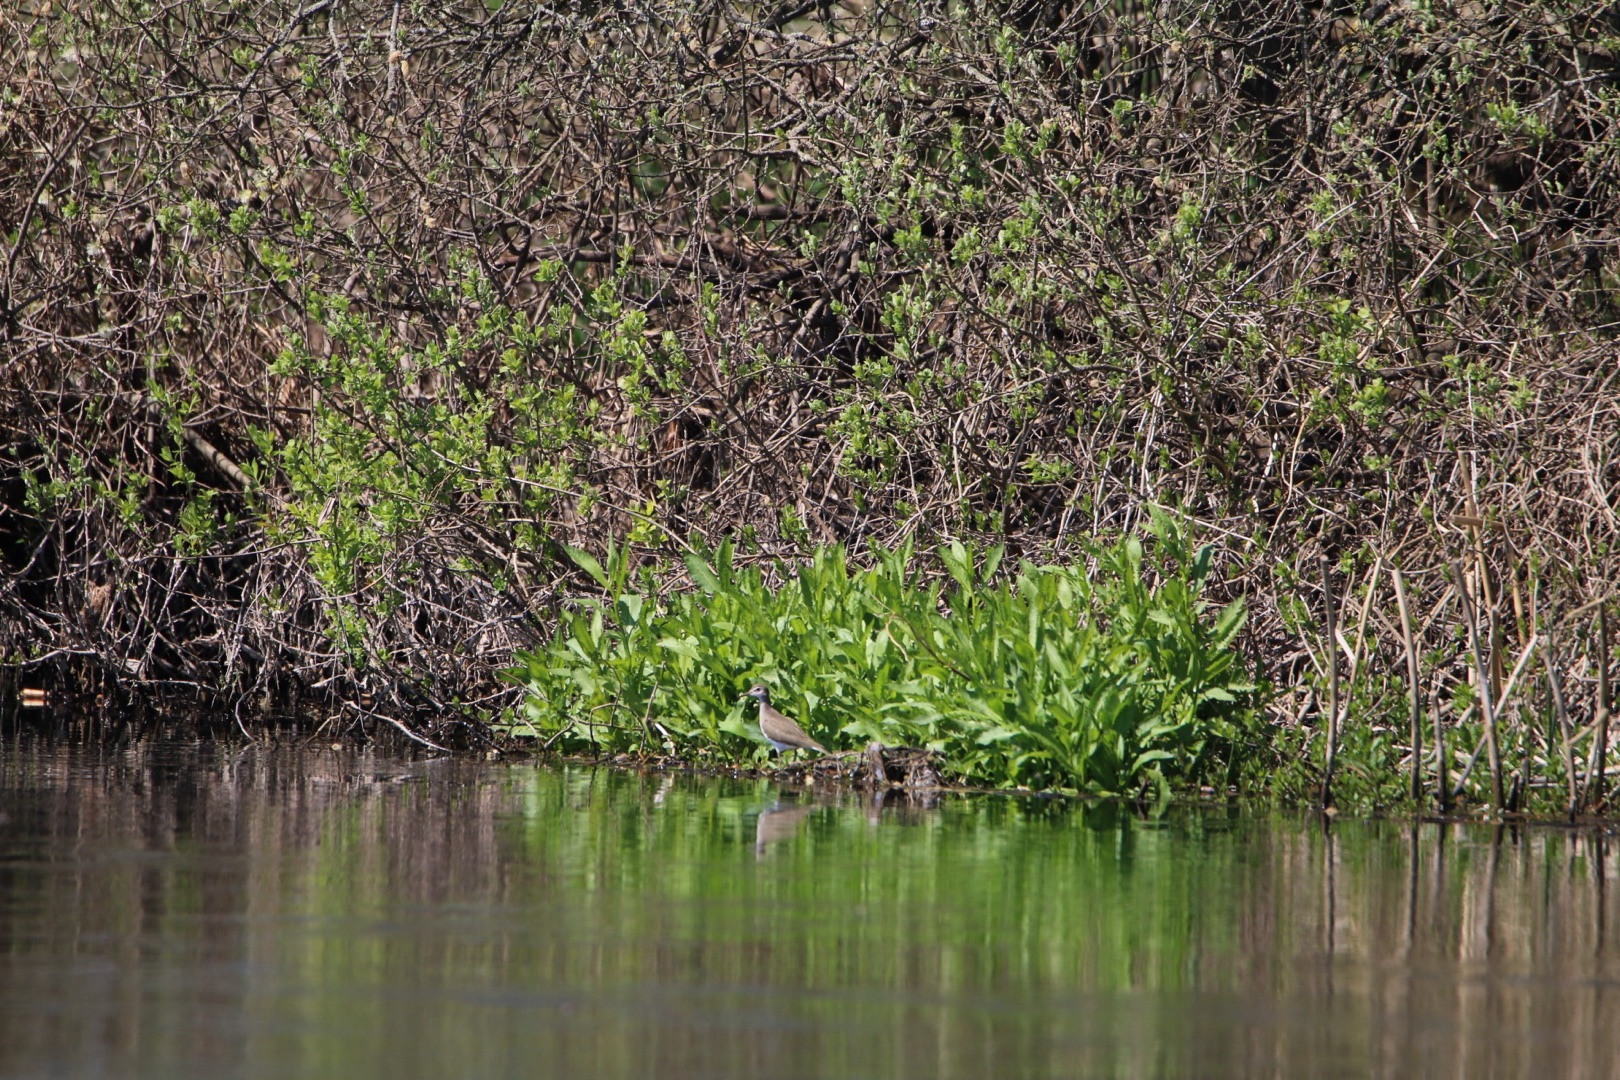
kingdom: Animalia
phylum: Chordata
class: Aves
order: Charadriiformes
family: Scolopacidae
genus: Actitis
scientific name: Actitis hypoleucos
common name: Mudderklire
